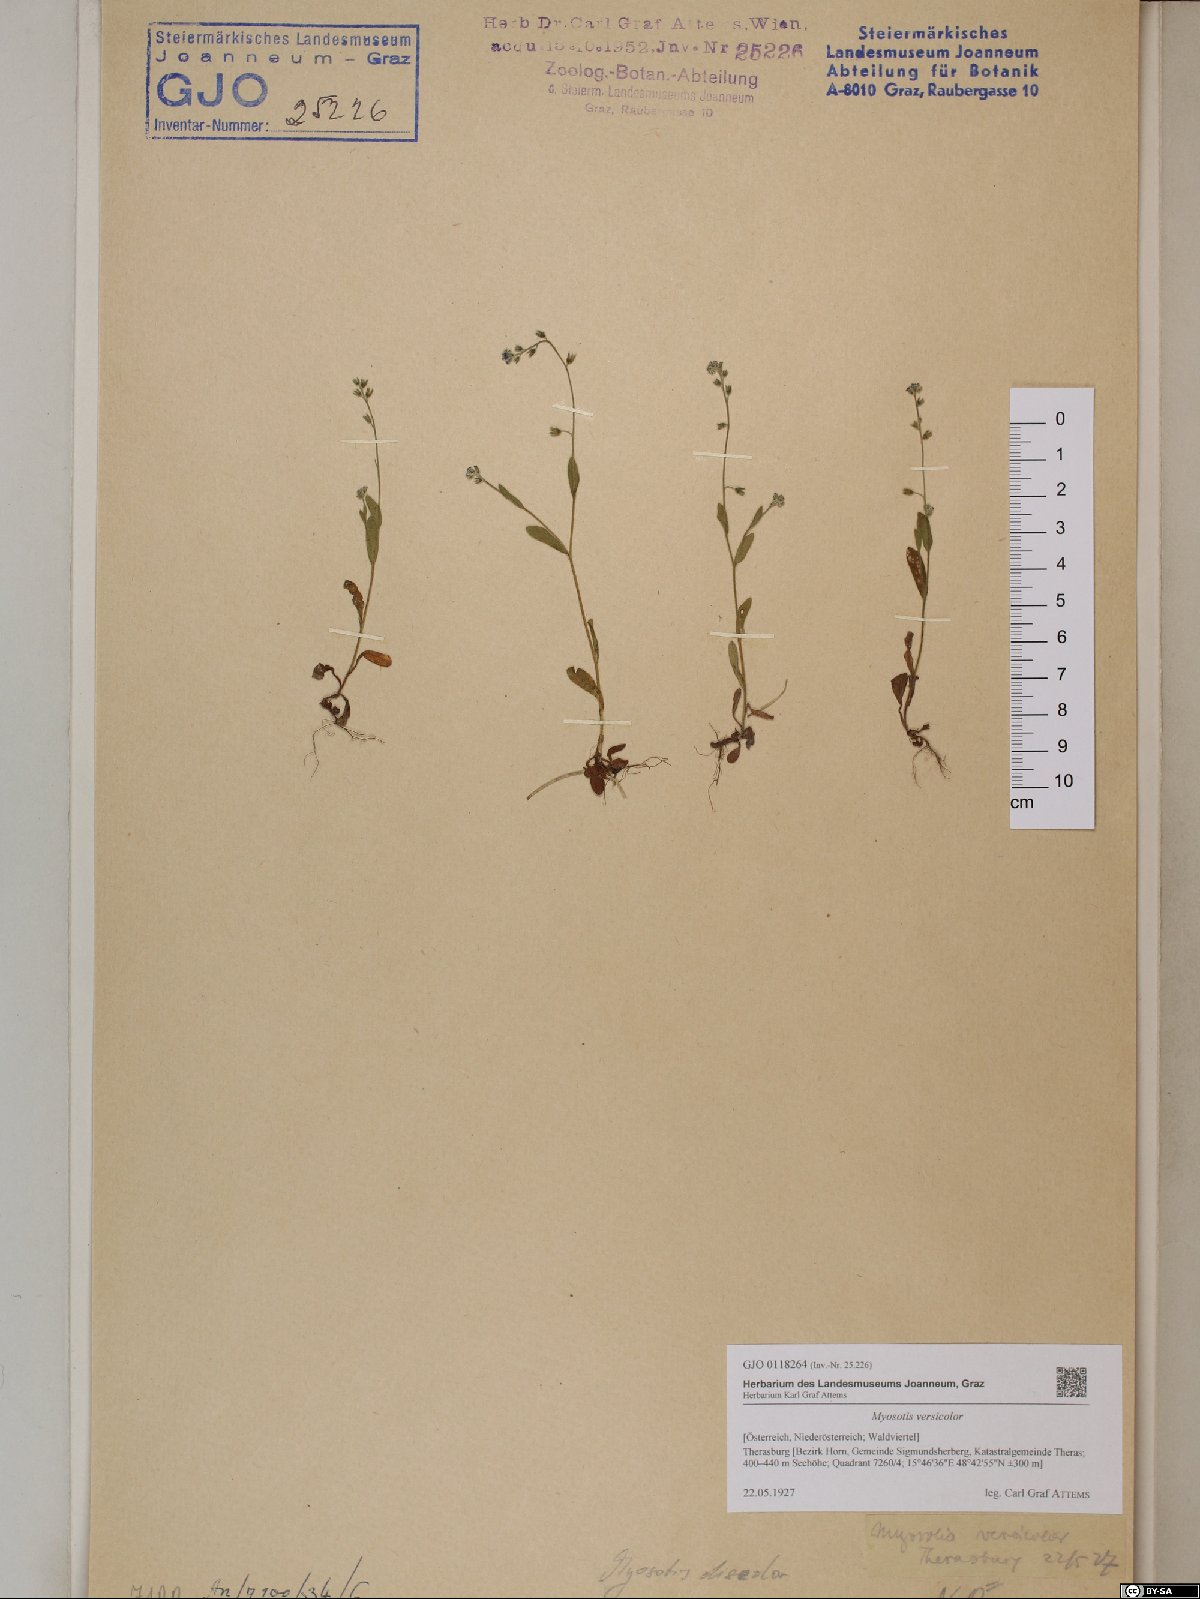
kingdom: Plantae
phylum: Tracheophyta
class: Magnoliopsida
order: Boraginales
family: Boraginaceae
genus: Myosotis
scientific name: Myosotis discolor
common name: Changing forget-me-not
